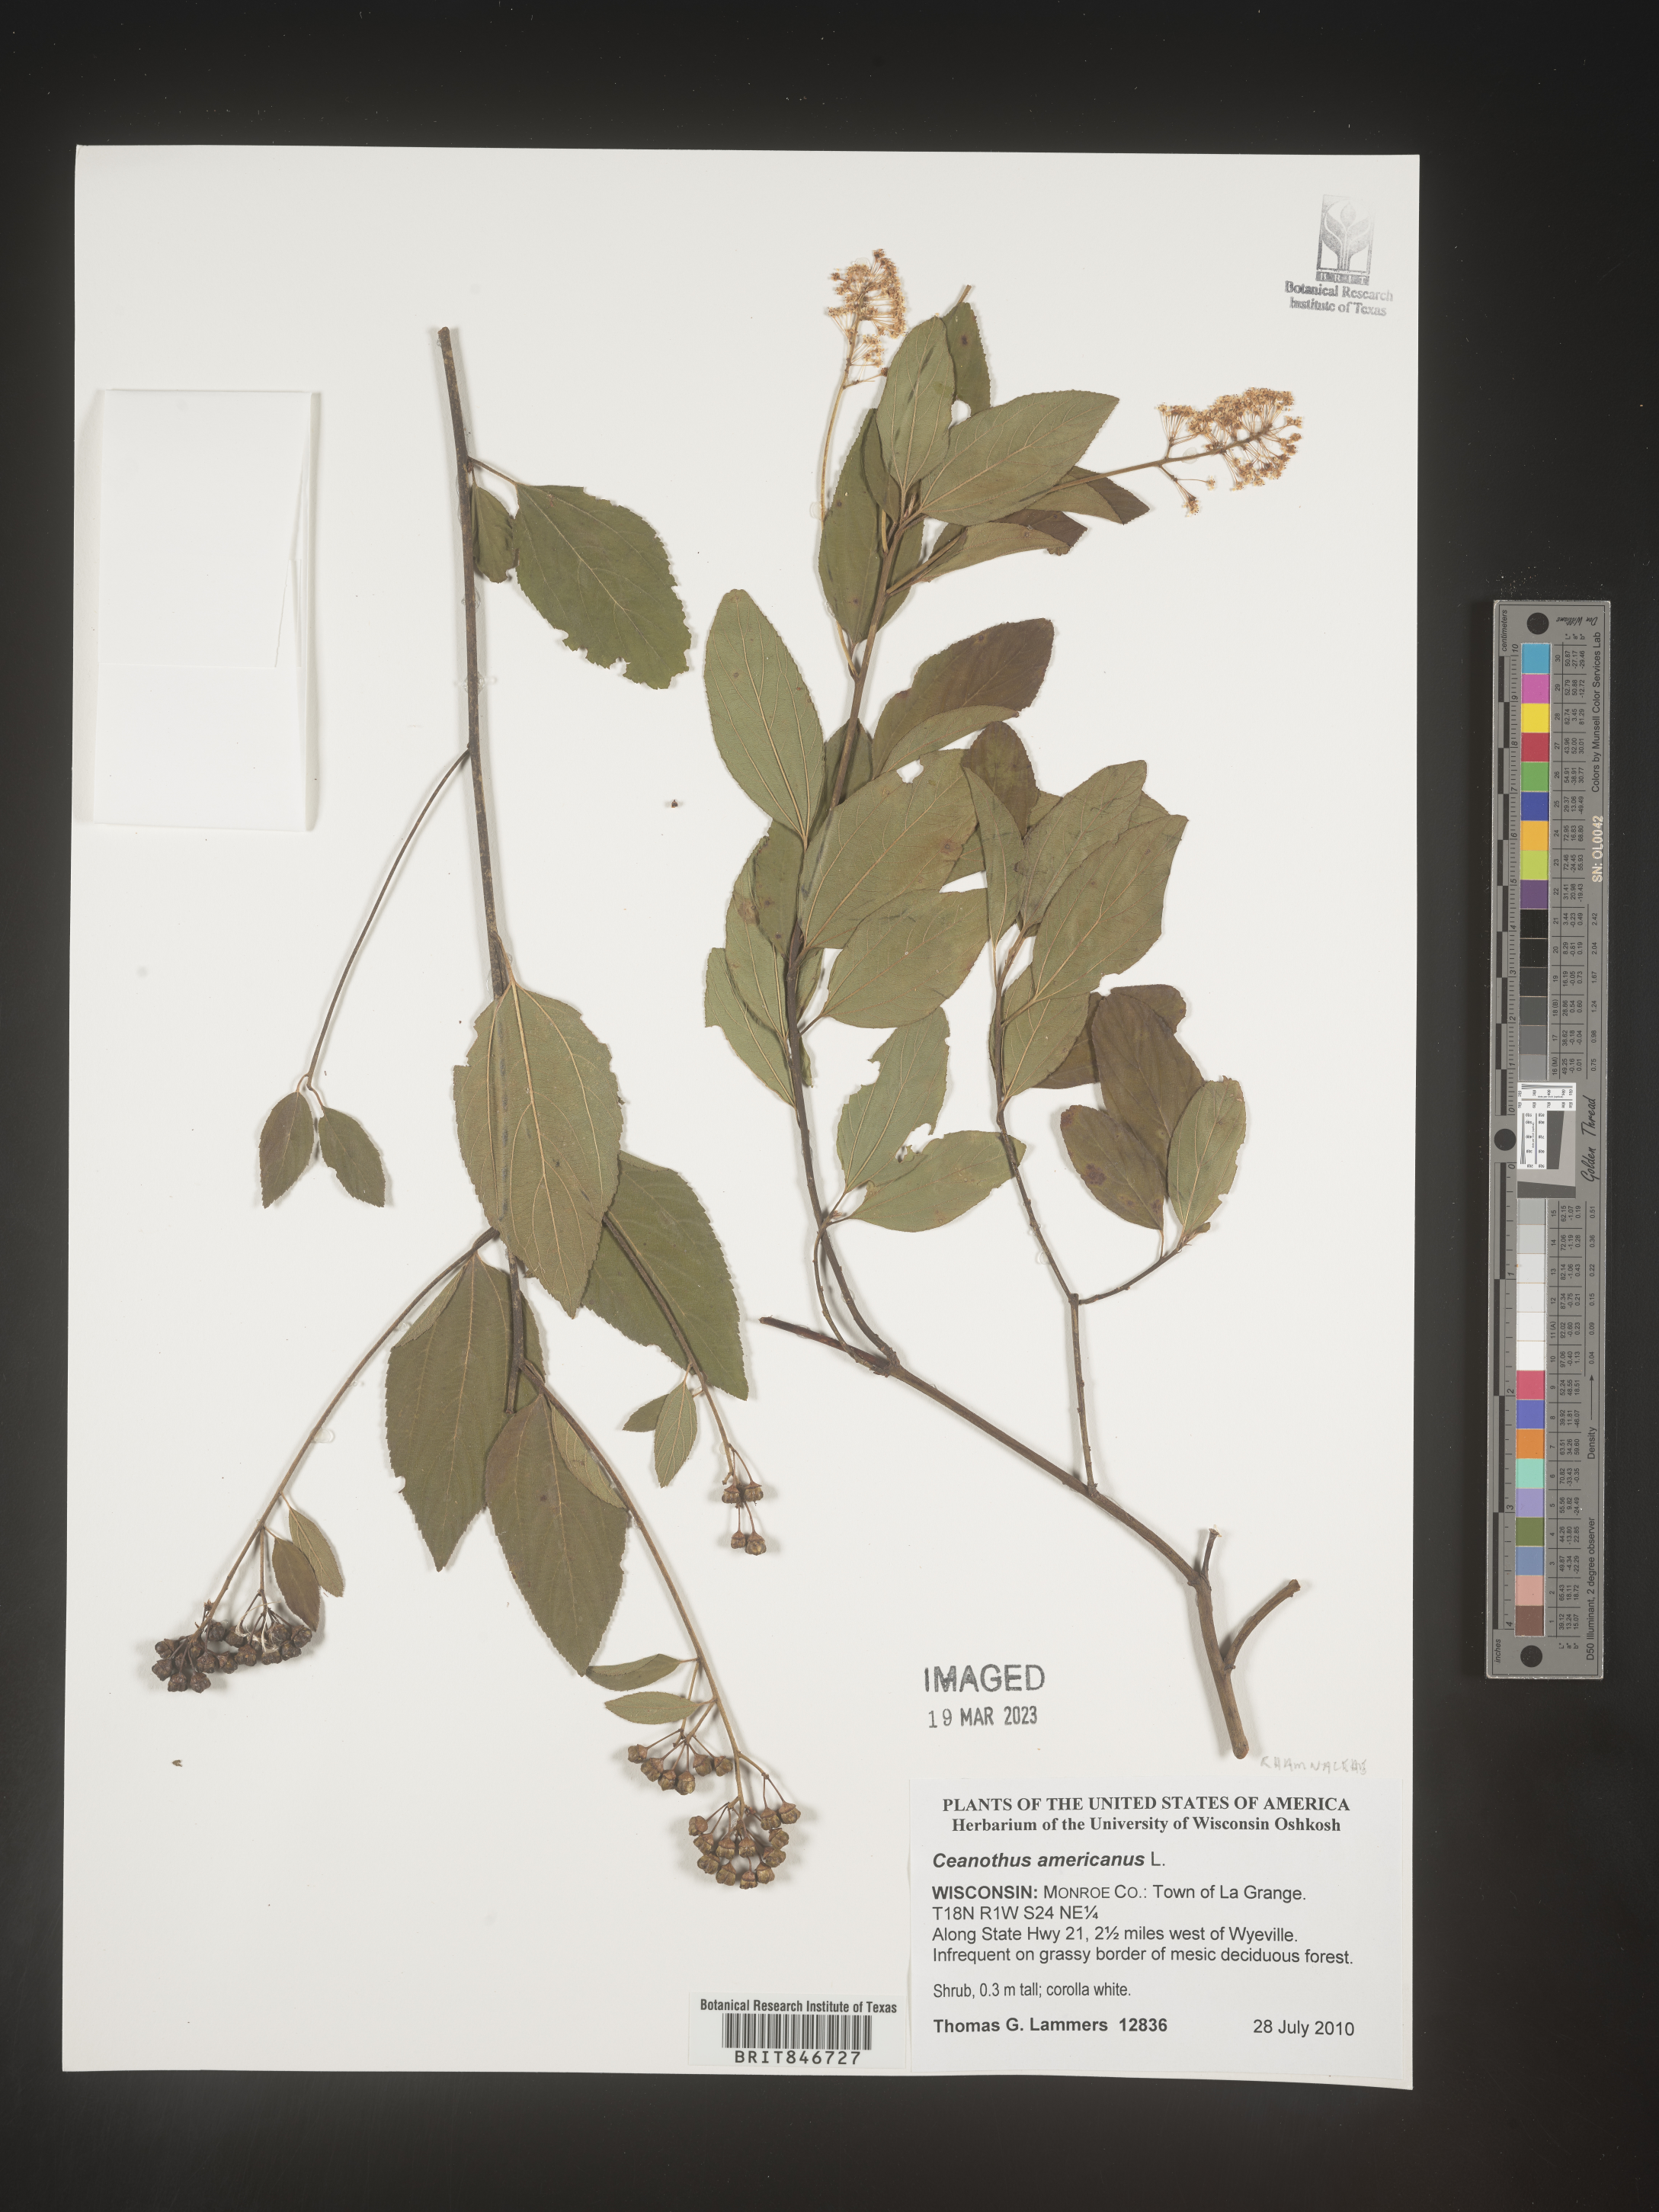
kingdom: Plantae
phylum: Tracheophyta
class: Magnoliopsida
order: Rosales
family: Rhamnaceae
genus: Ceanothus
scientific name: Ceanothus americanus
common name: Redroot
